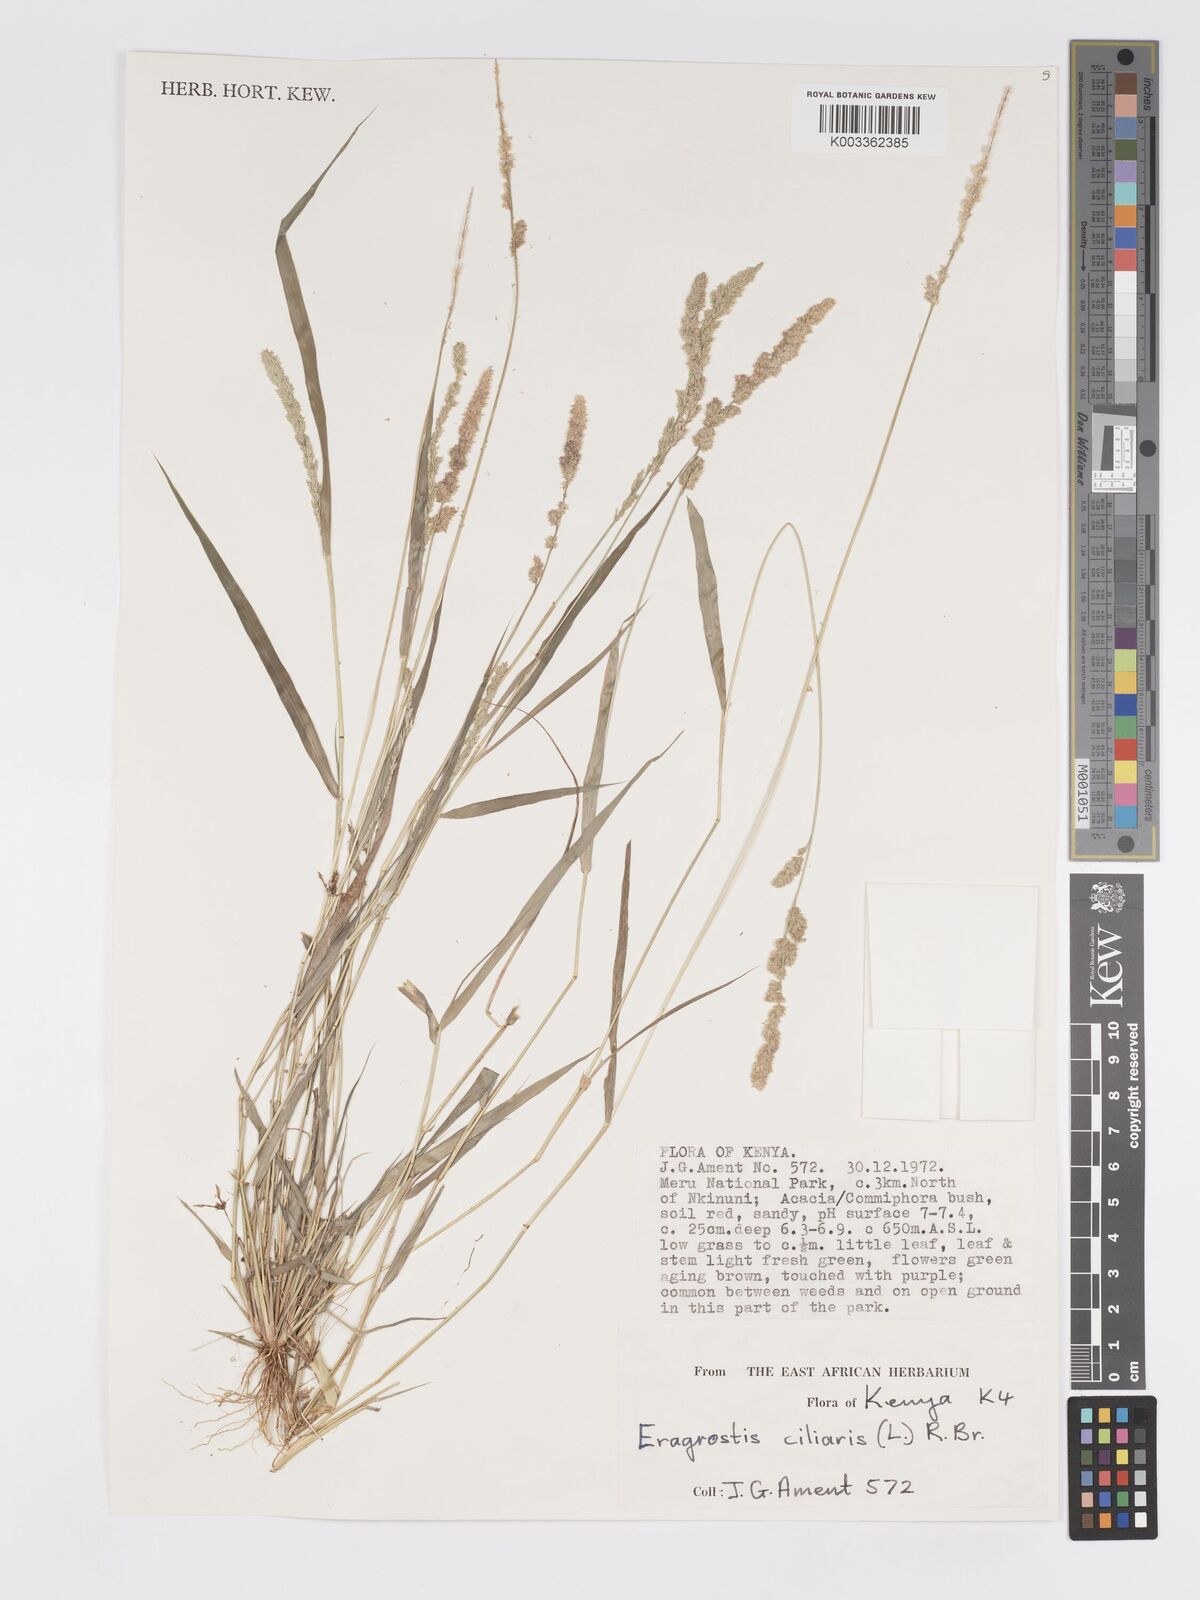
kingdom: Plantae
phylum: Tracheophyta
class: Liliopsida
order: Poales
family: Poaceae
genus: Eragrostis
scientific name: Eragrostis ciliaris
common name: Gophertail lovegrass
